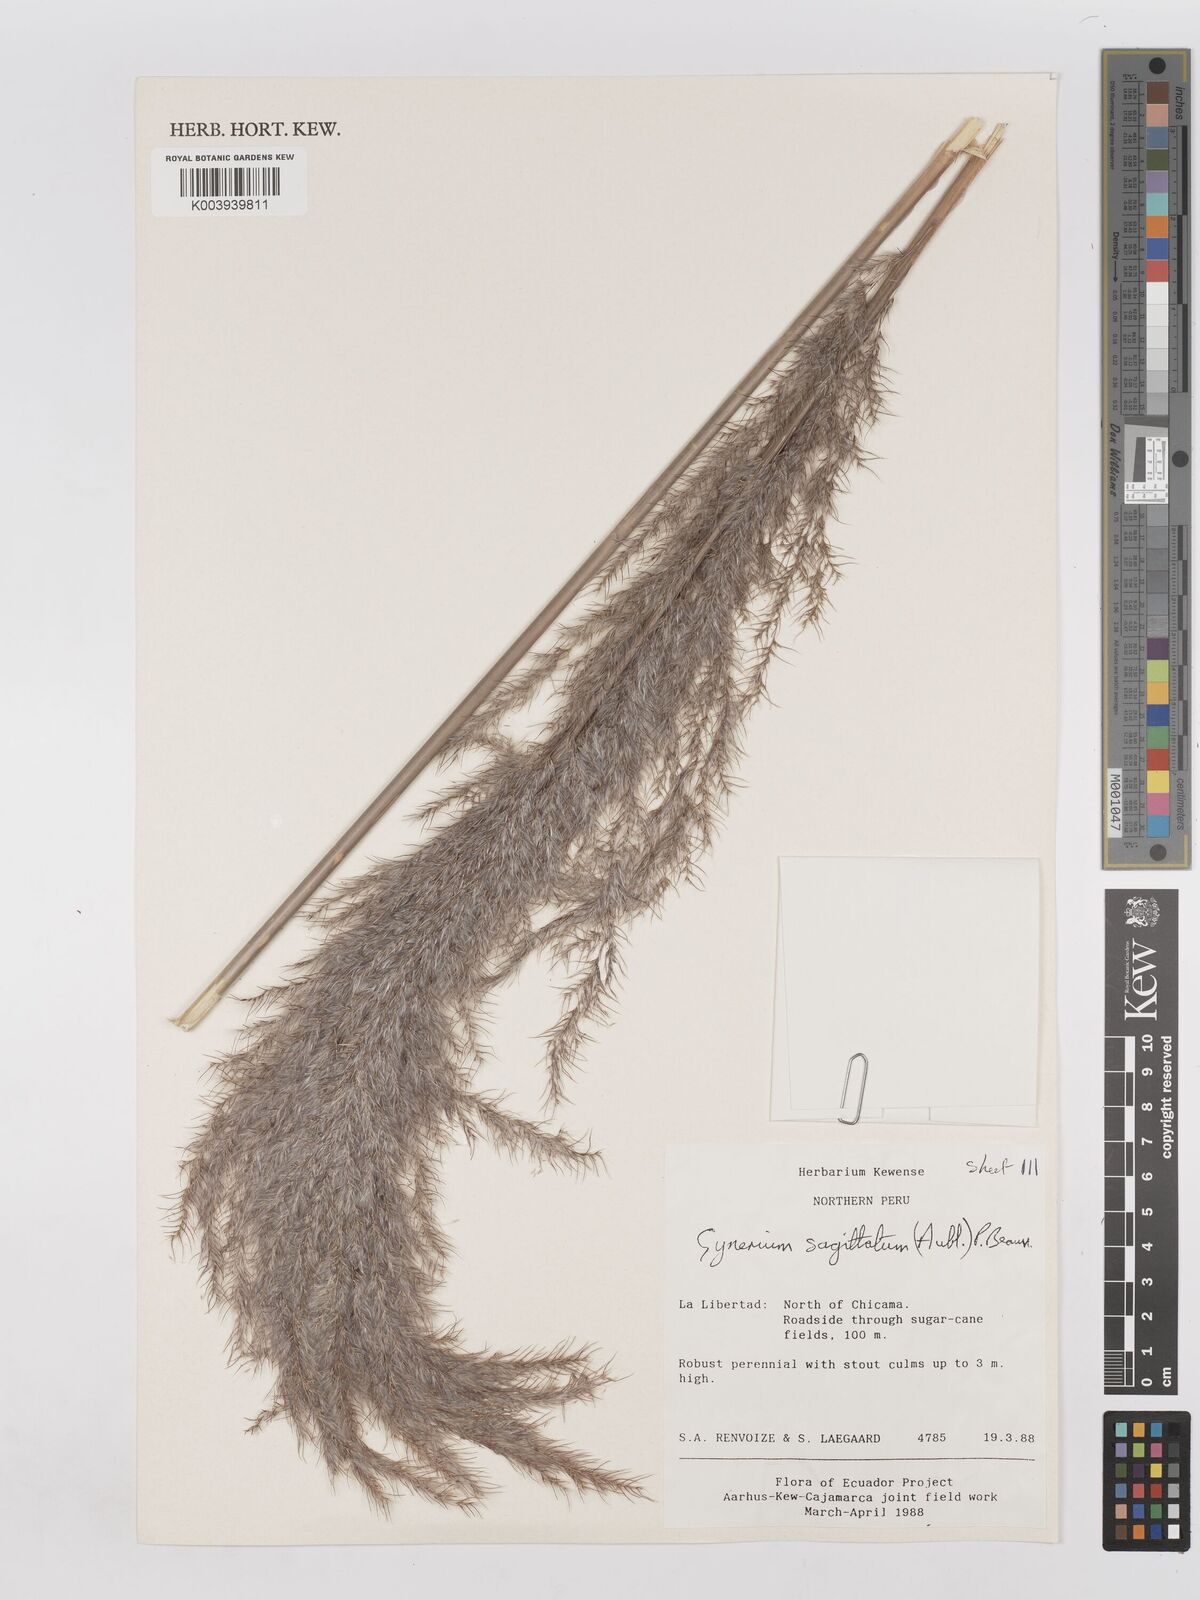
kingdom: Plantae
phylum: Tracheophyta
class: Liliopsida
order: Poales
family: Poaceae
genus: Gynerium
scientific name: Gynerium sagittatum
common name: Wild cane
